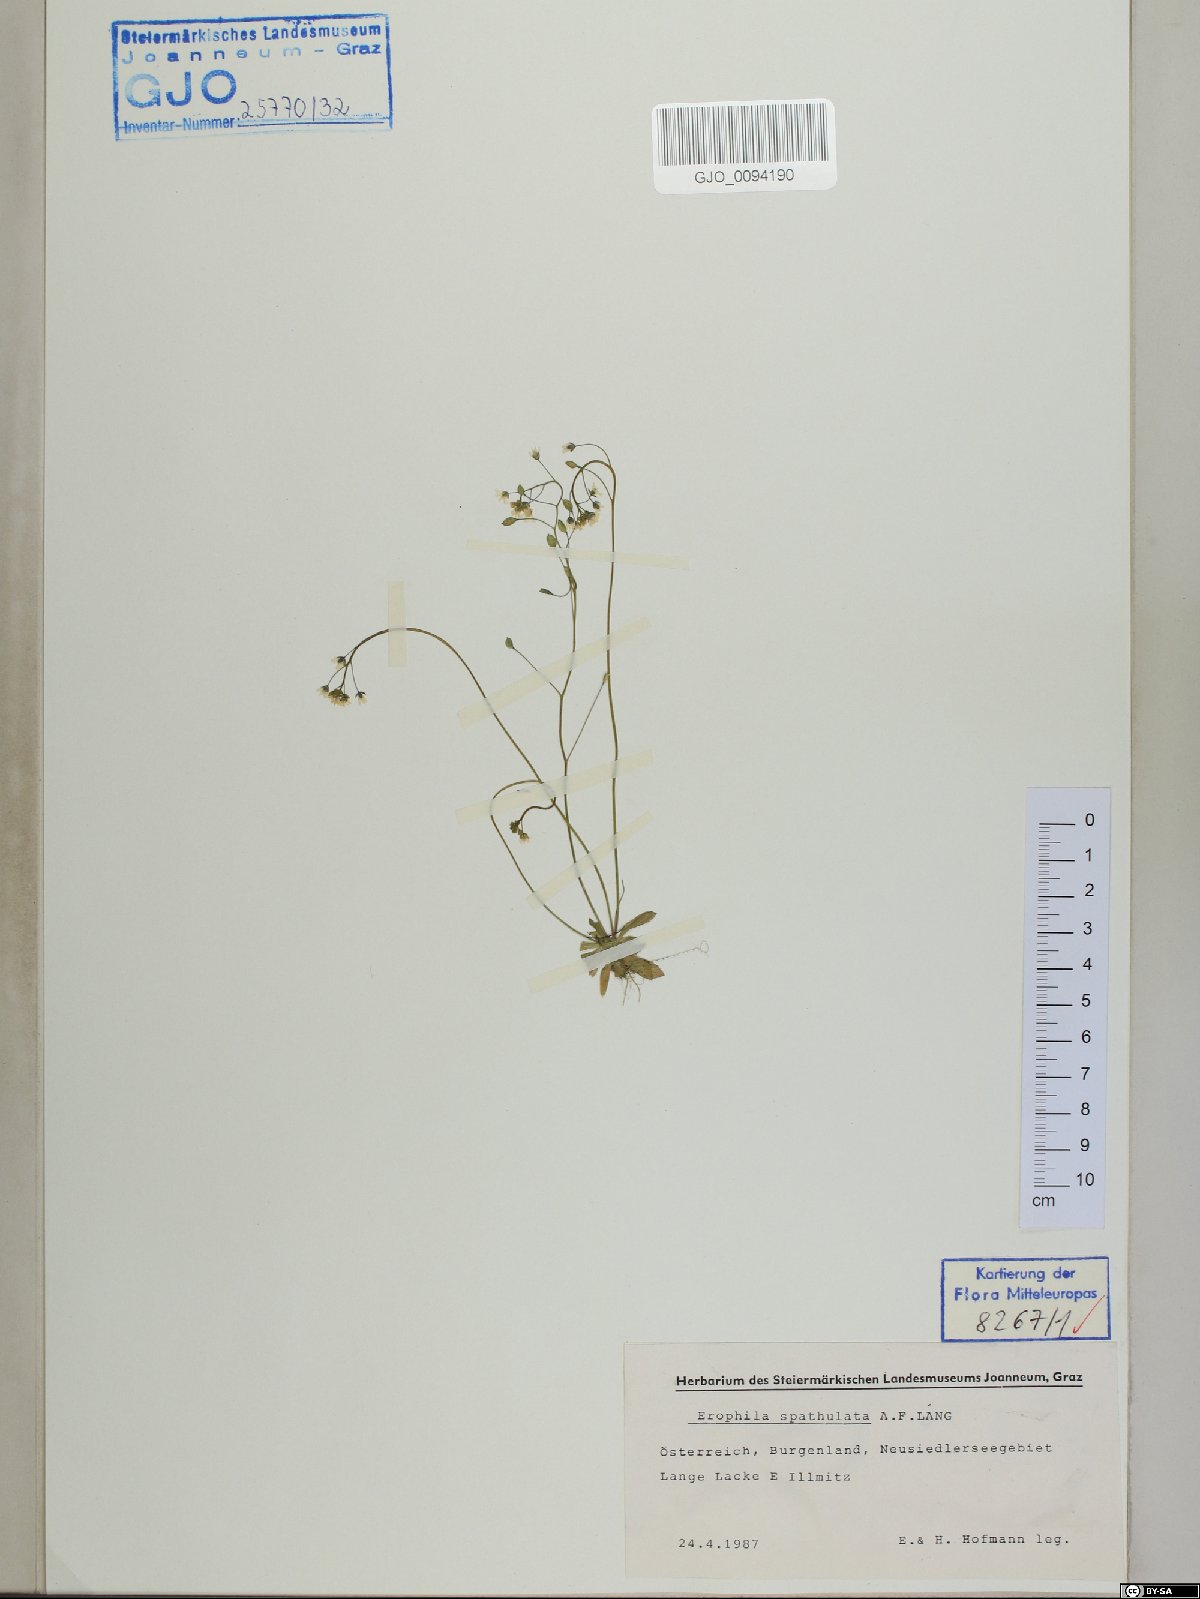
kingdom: Plantae
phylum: Tracheophyta
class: Magnoliopsida
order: Brassicales
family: Brassicaceae
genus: Draba
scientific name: Draba verna
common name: Spring draba
